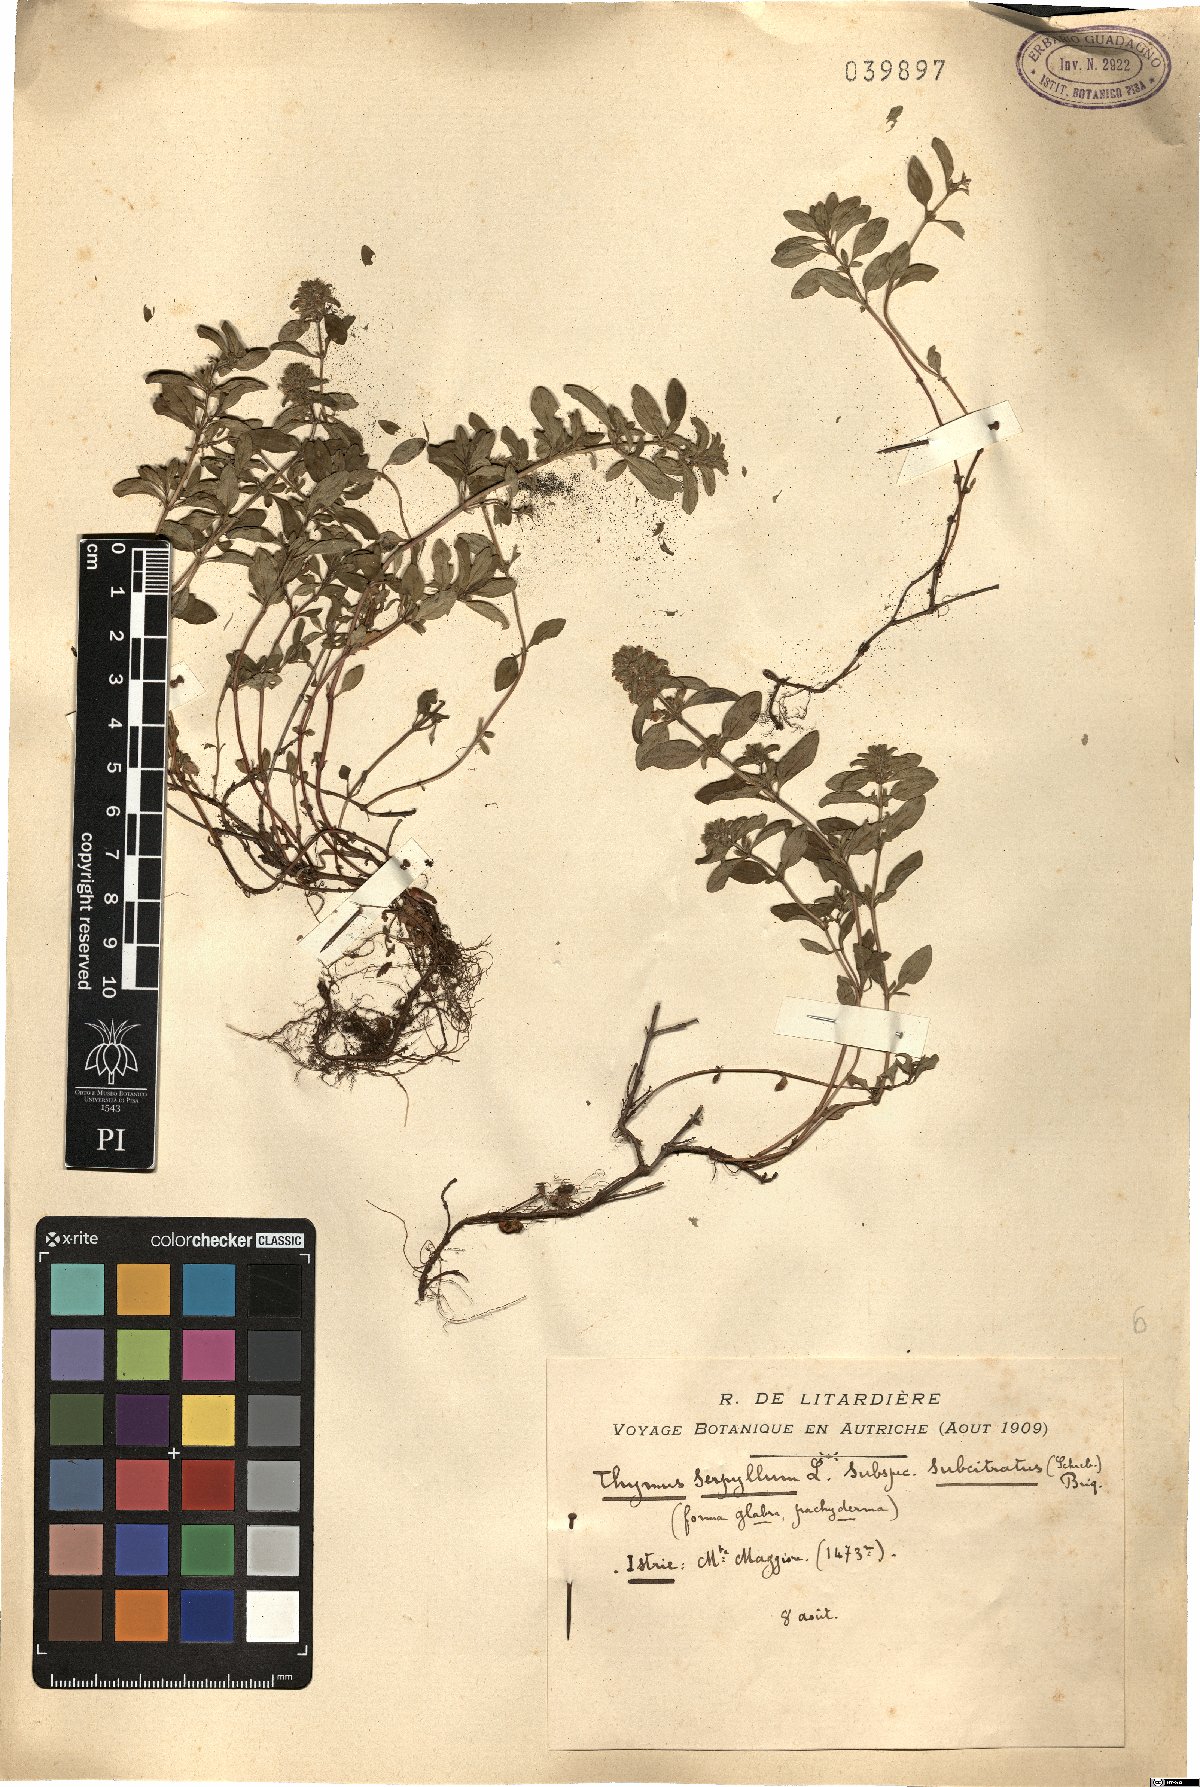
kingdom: Plantae
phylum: Tracheophyta
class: Magnoliopsida
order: Lamiales
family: Lamiaceae
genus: Thymus
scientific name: Thymus serpyllum
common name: Breckland thyme
